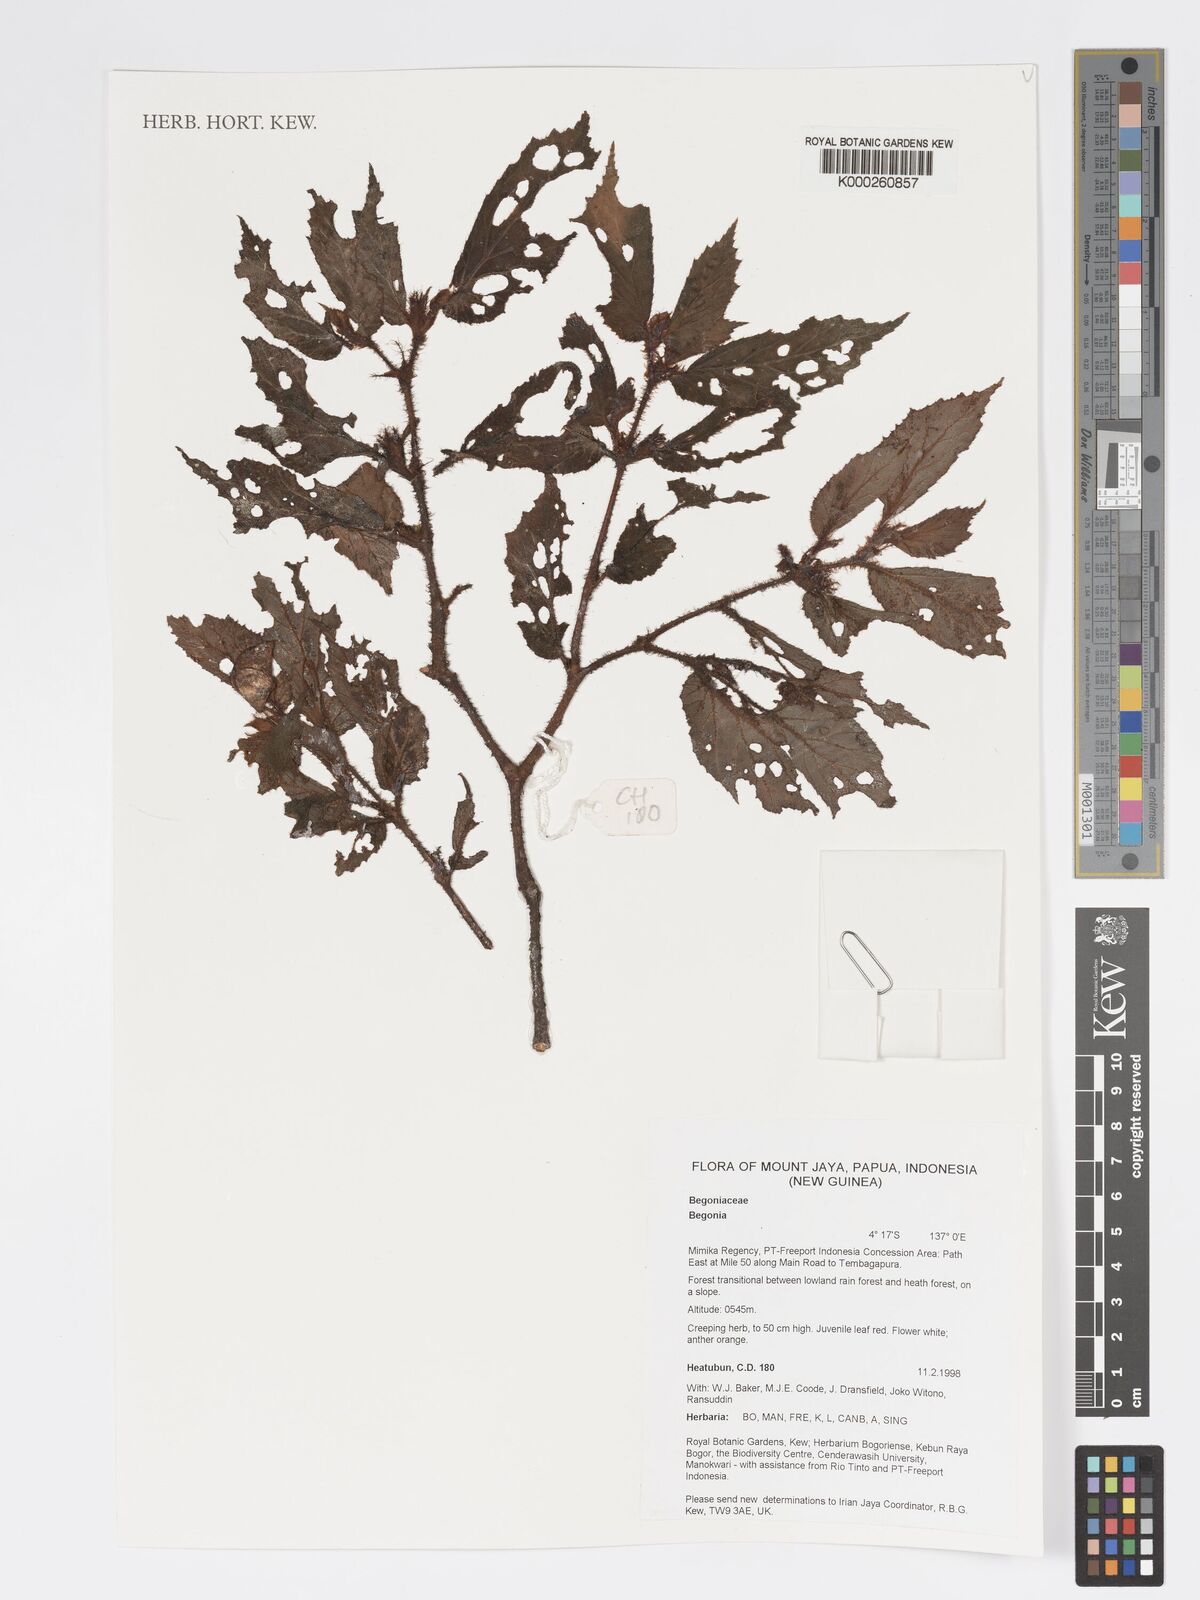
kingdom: Plantae
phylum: Tracheophyta
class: Magnoliopsida
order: Cucurbitales
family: Begoniaceae
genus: Begonia
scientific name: Begonia
